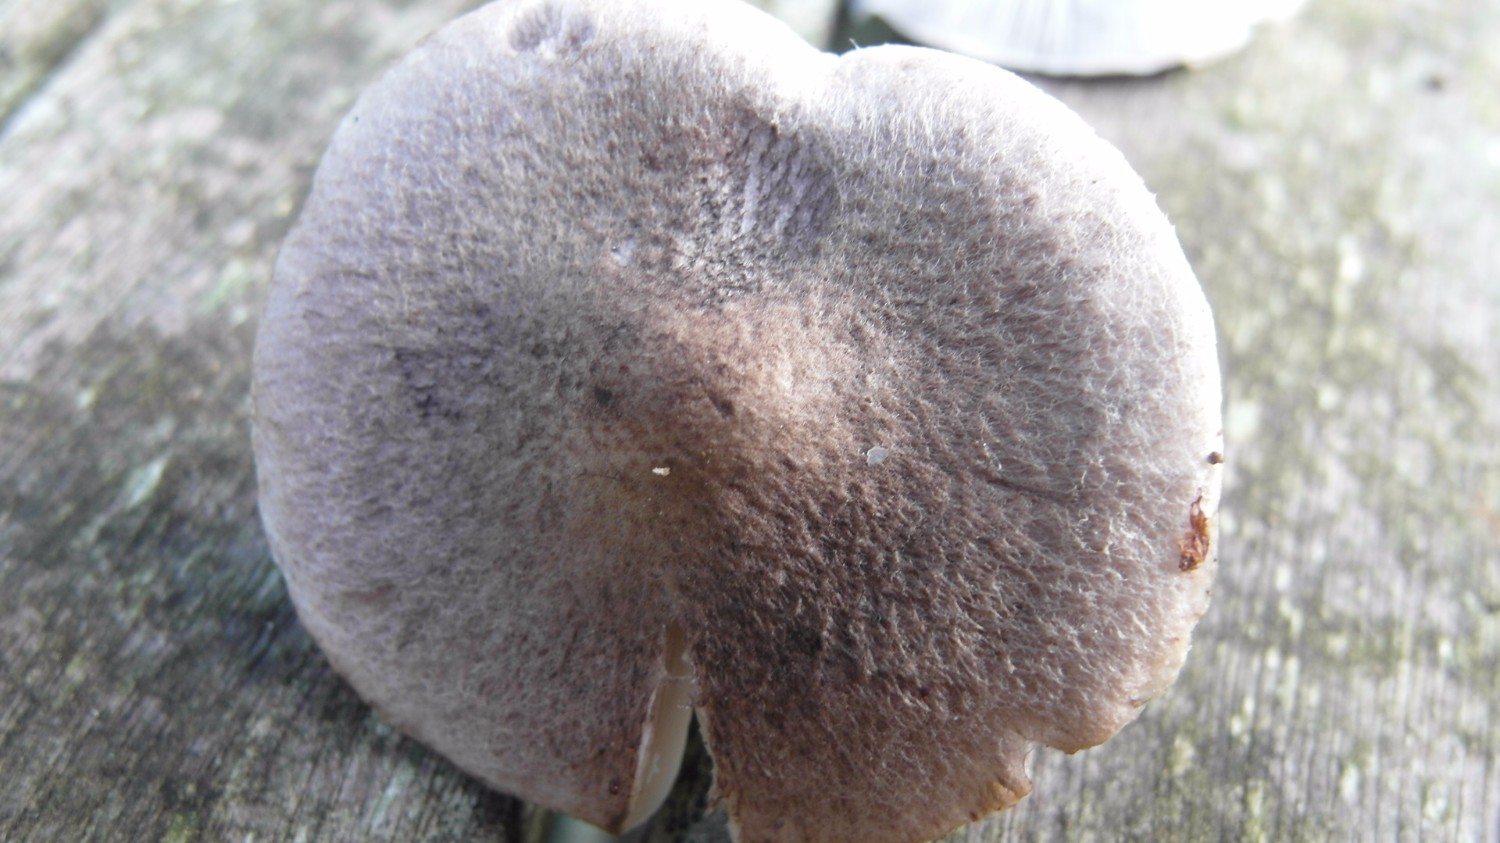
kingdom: Fungi
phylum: Basidiomycota
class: Agaricomycetes
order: Agaricales
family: Tricholomataceae
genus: Tricholoma
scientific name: Tricholoma scalpturatum
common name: gulplettet ridderhat
